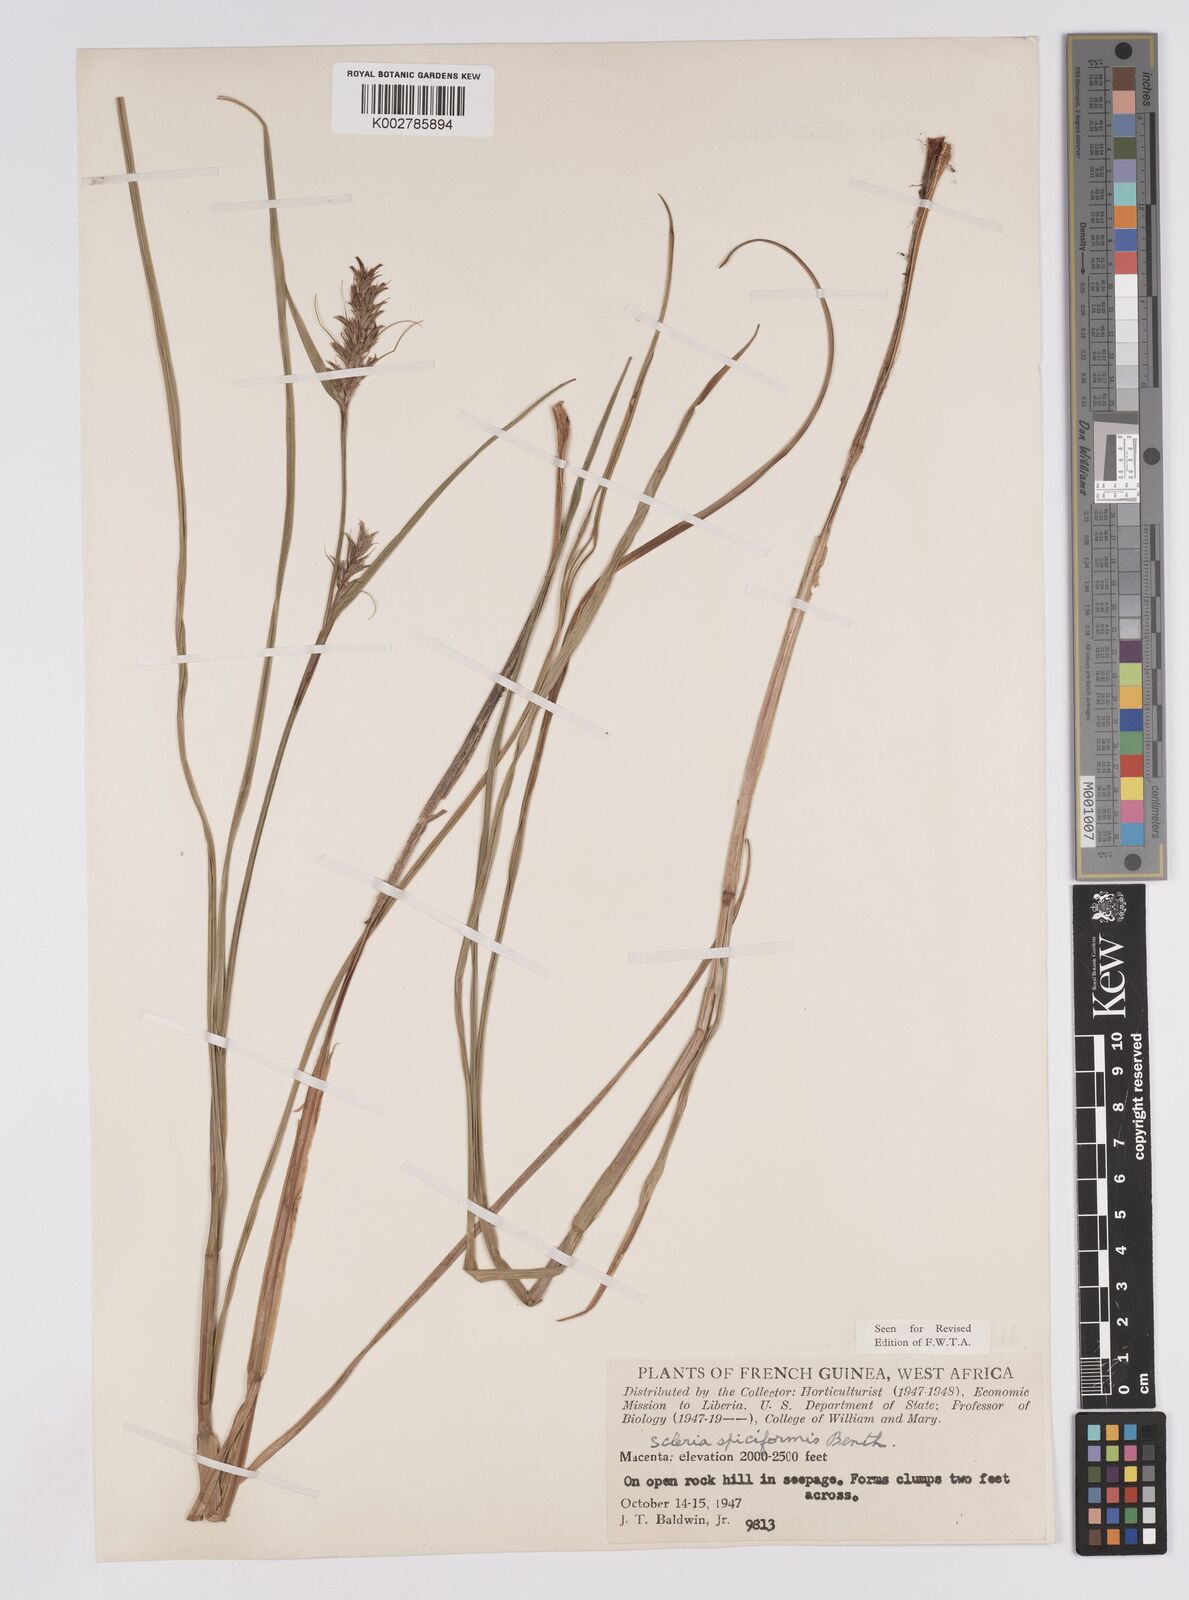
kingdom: Plantae
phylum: Tracheophyta
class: Liliopsida
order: Poales
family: Cyperaceae
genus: Scleria
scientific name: Scleria spiciformis
